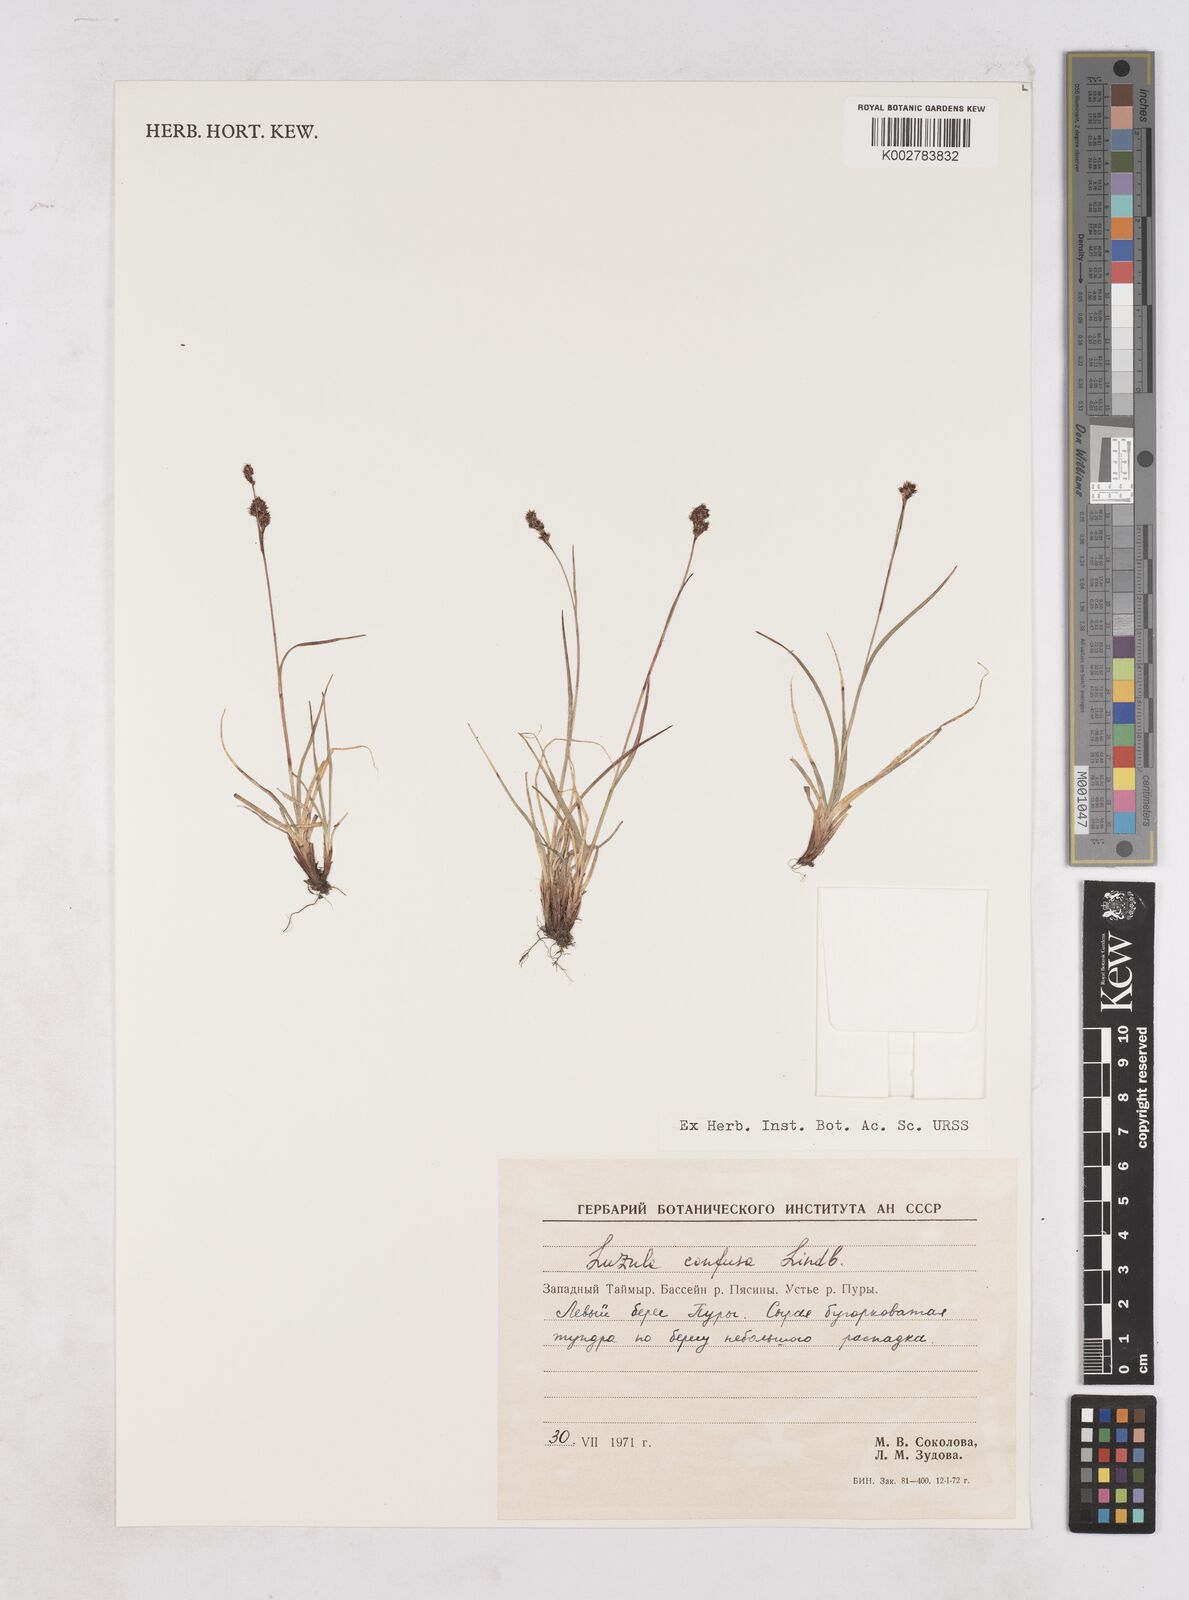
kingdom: Plantae
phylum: Tracheophyta
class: Liliopsida
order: Poales
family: Juncaceae
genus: Luzula
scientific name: Luzula confusa
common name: Northern wood rush
